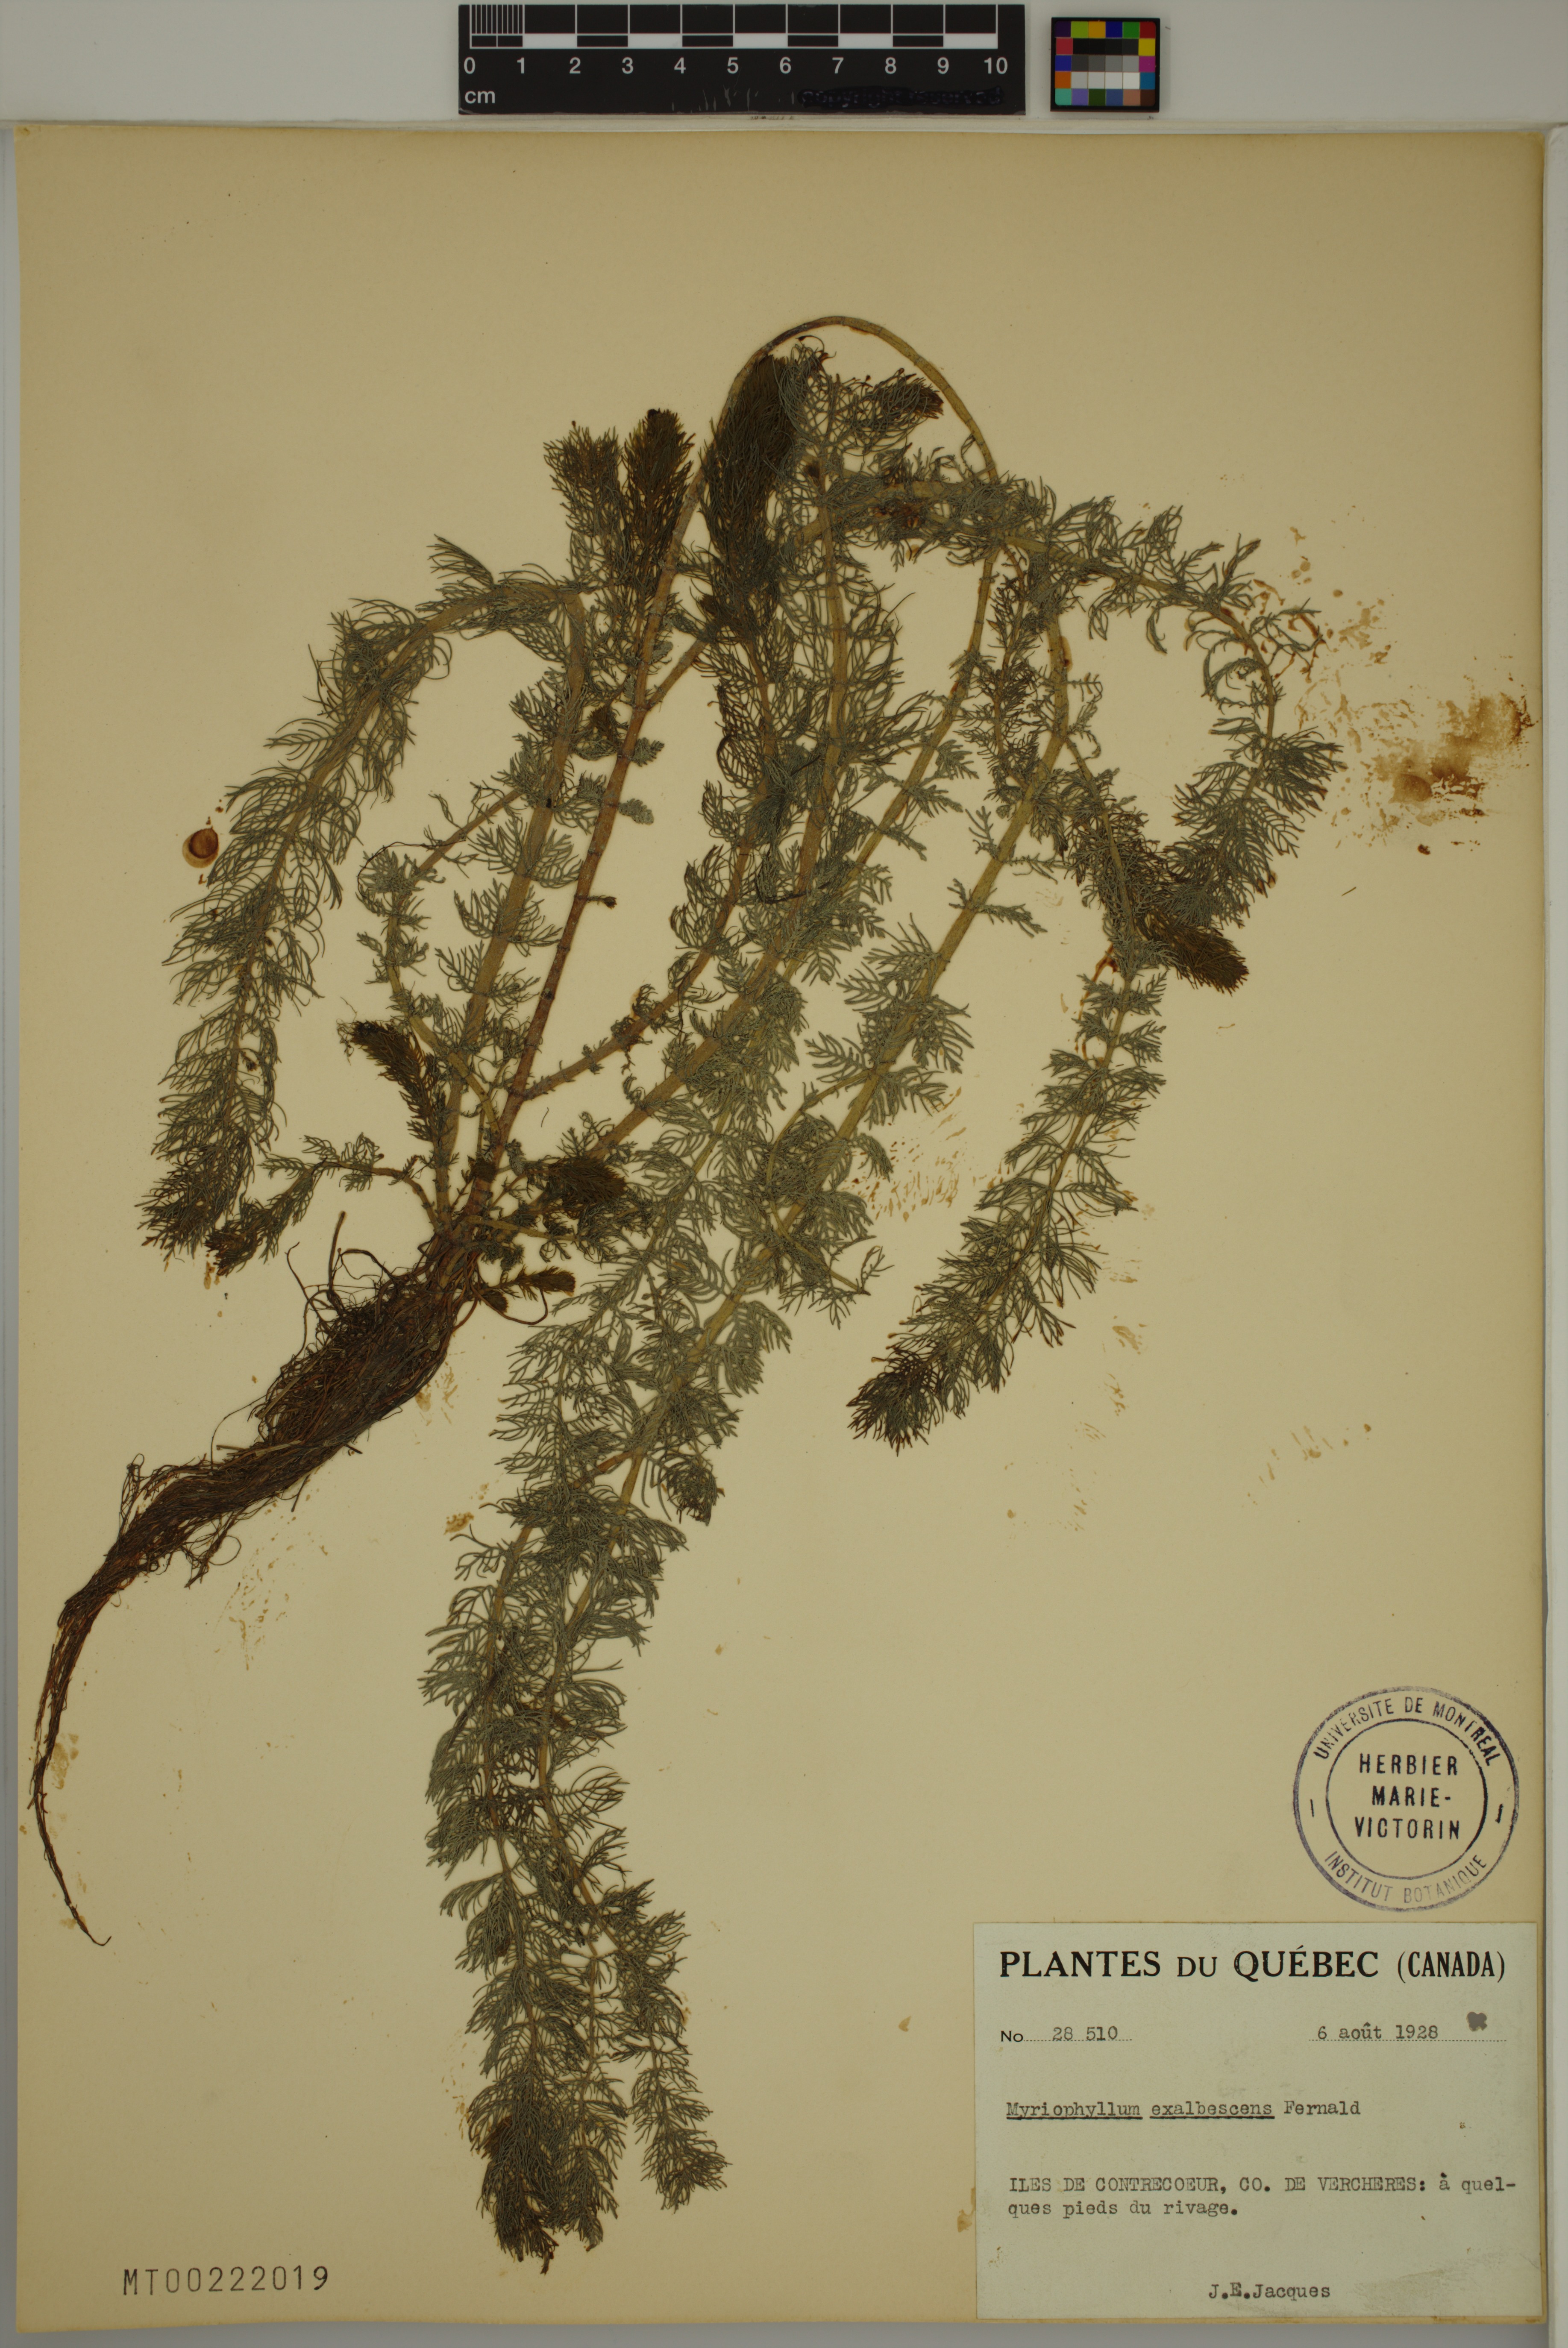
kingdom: Plantae
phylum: Tracheophyta
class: Magnoliopsida
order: Saxifragales
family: Haloragaceae
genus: Myriophyllum
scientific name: Myriophyllum sibiricum
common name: Siberian water-milfoil
